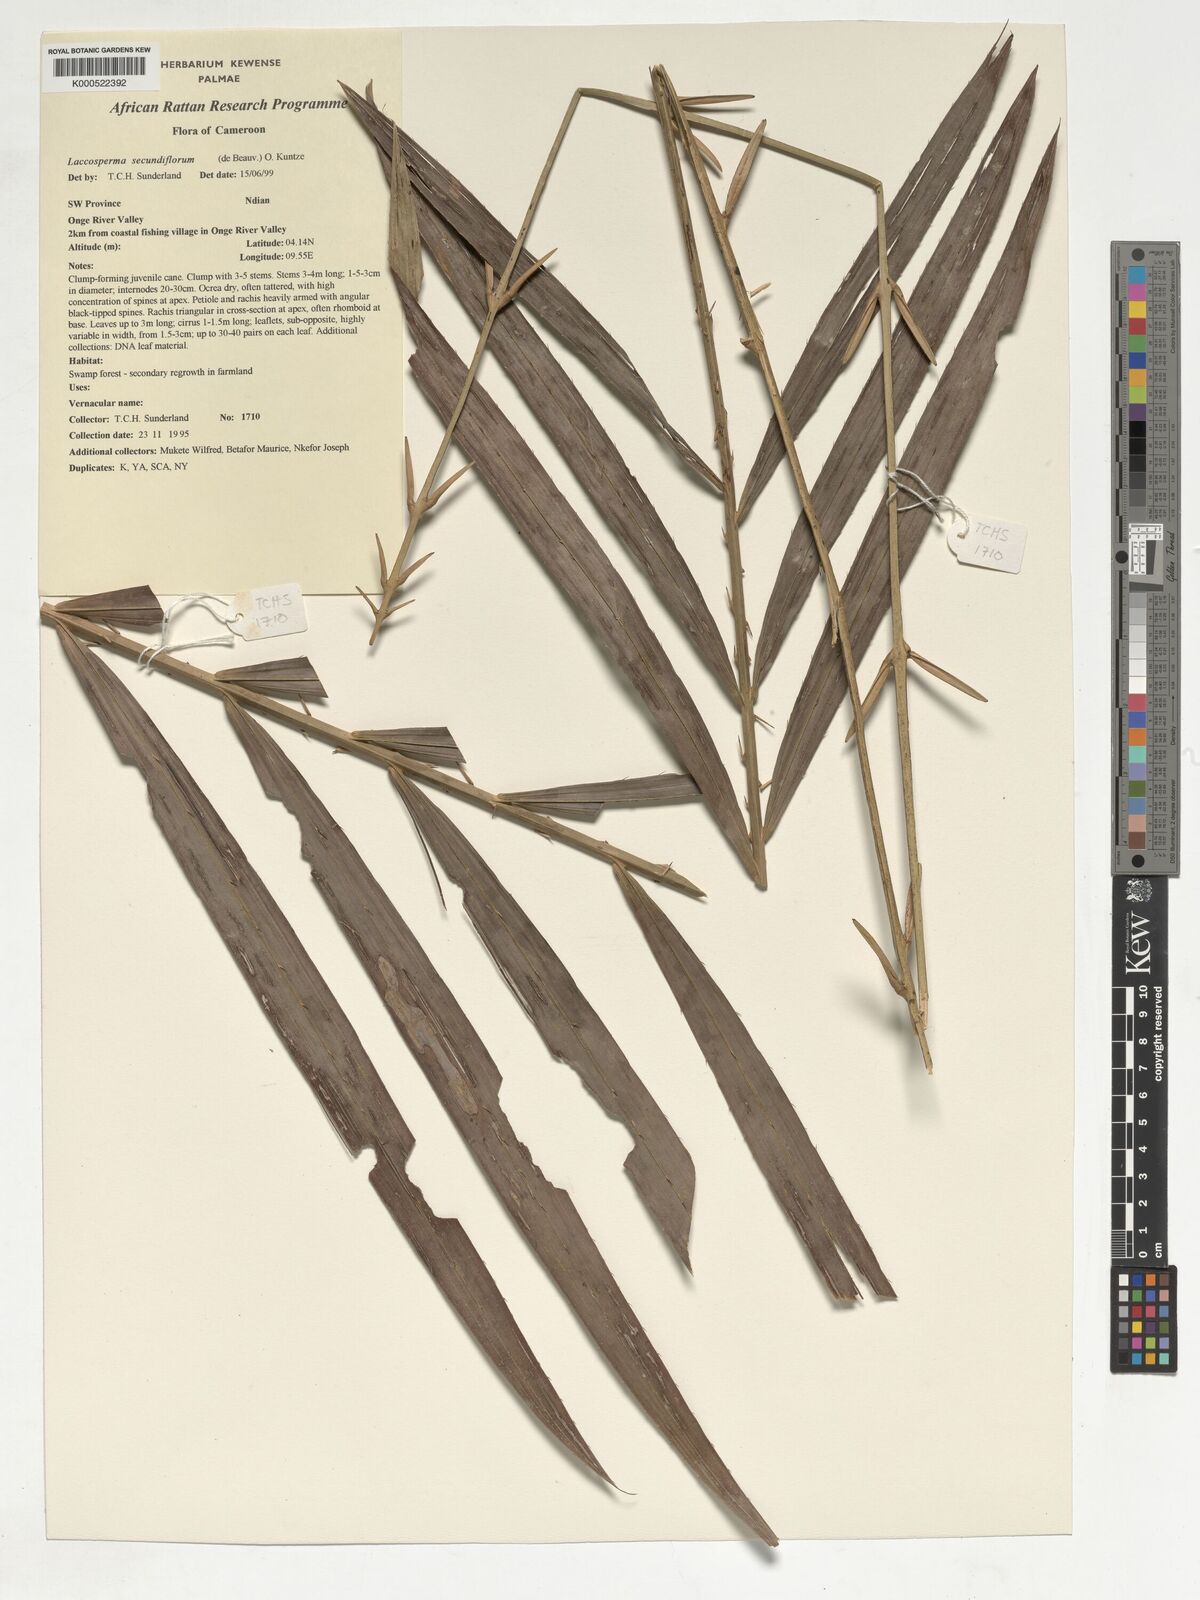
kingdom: Plantae
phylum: Tracheophyta
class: Liliopsida
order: Arecales
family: Arecaceae
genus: Laccosperma
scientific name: Laccosperma secundiflorum
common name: Rattan
